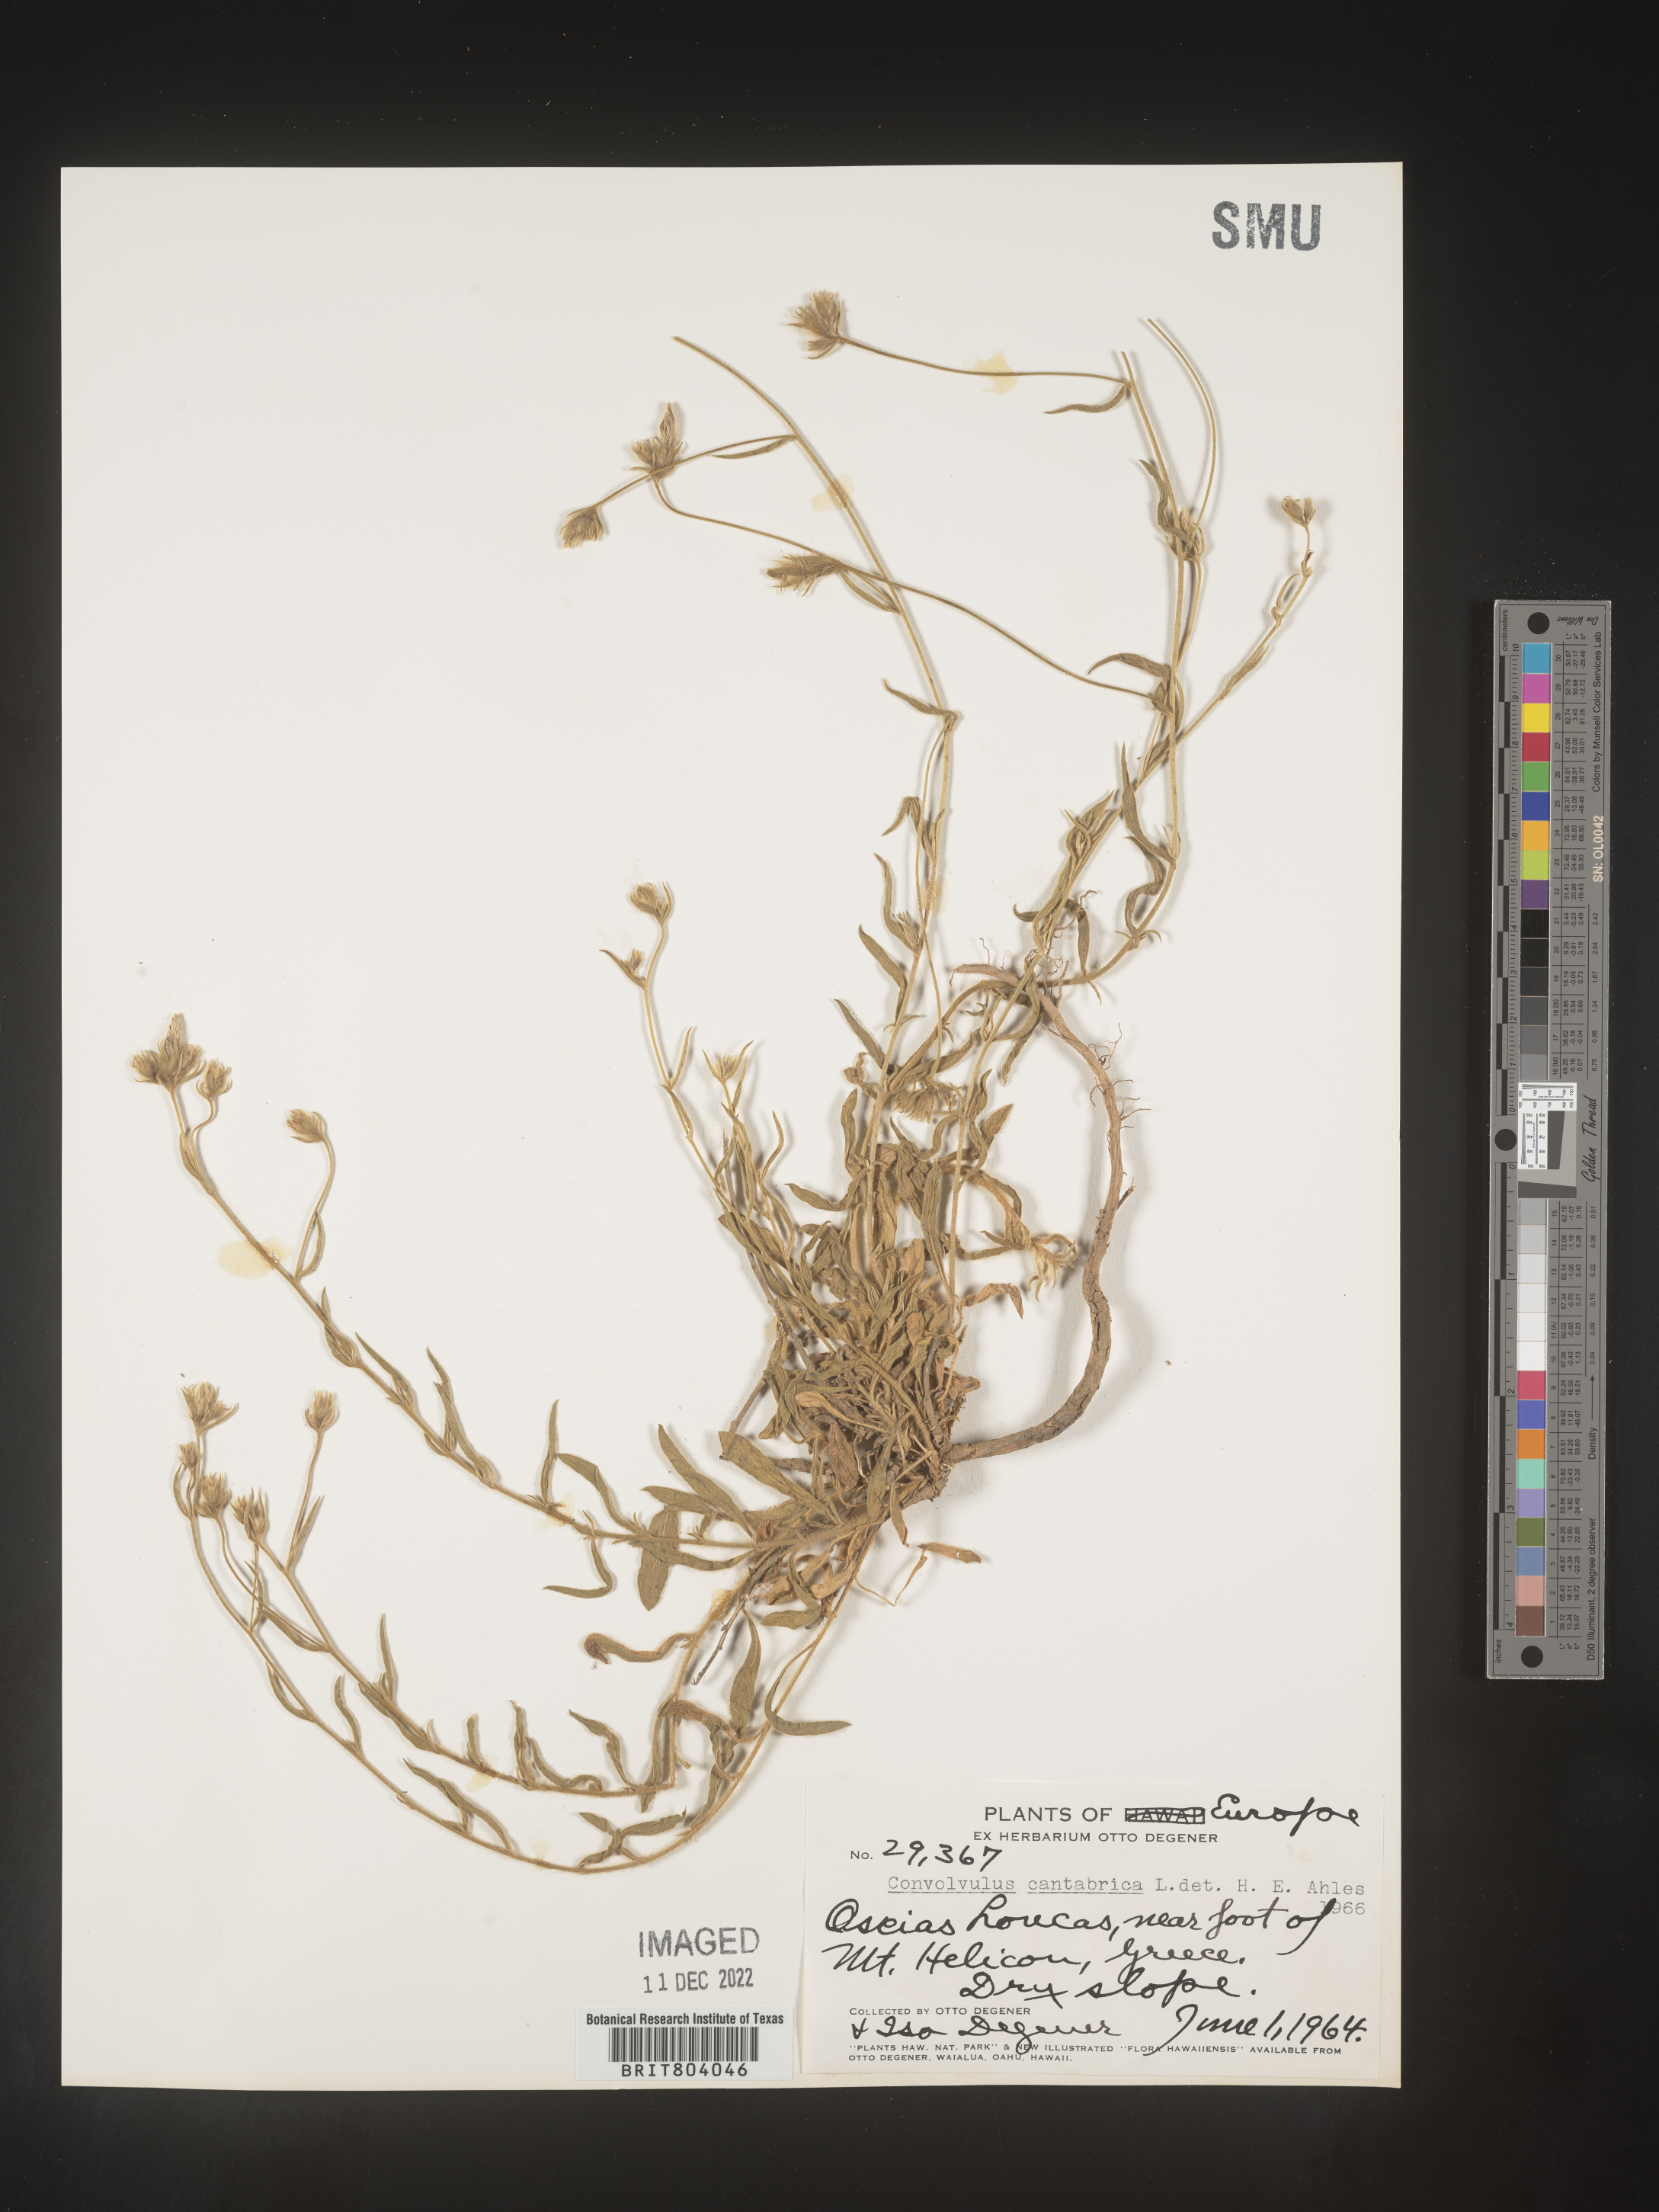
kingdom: Plantae
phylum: Tracheophyta
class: Magnoliopsida
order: Solanales
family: Convolvulaceae
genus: Convolvulus
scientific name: Convolvulus
